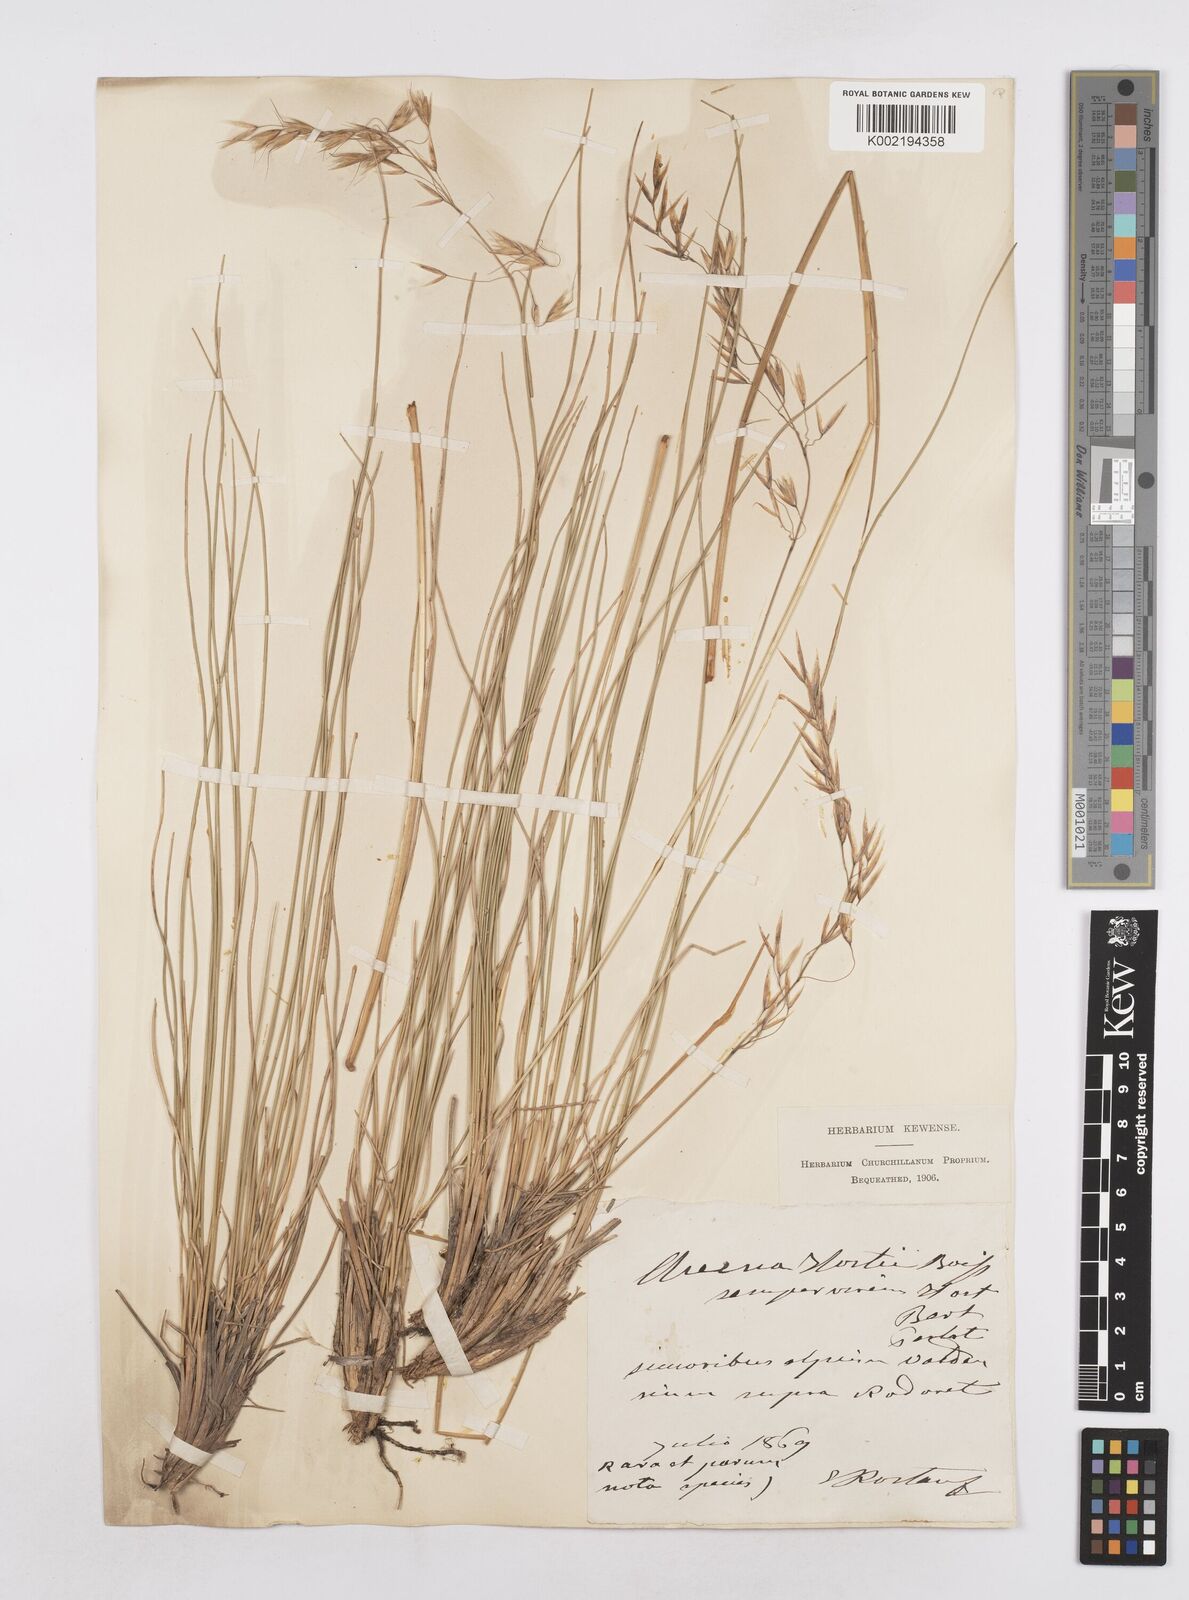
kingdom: Plantae
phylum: Tracheophyta
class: Liliopsida
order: Poales
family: Poaceae
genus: Helictotrichon
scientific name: Helictotrichon parlatorei
